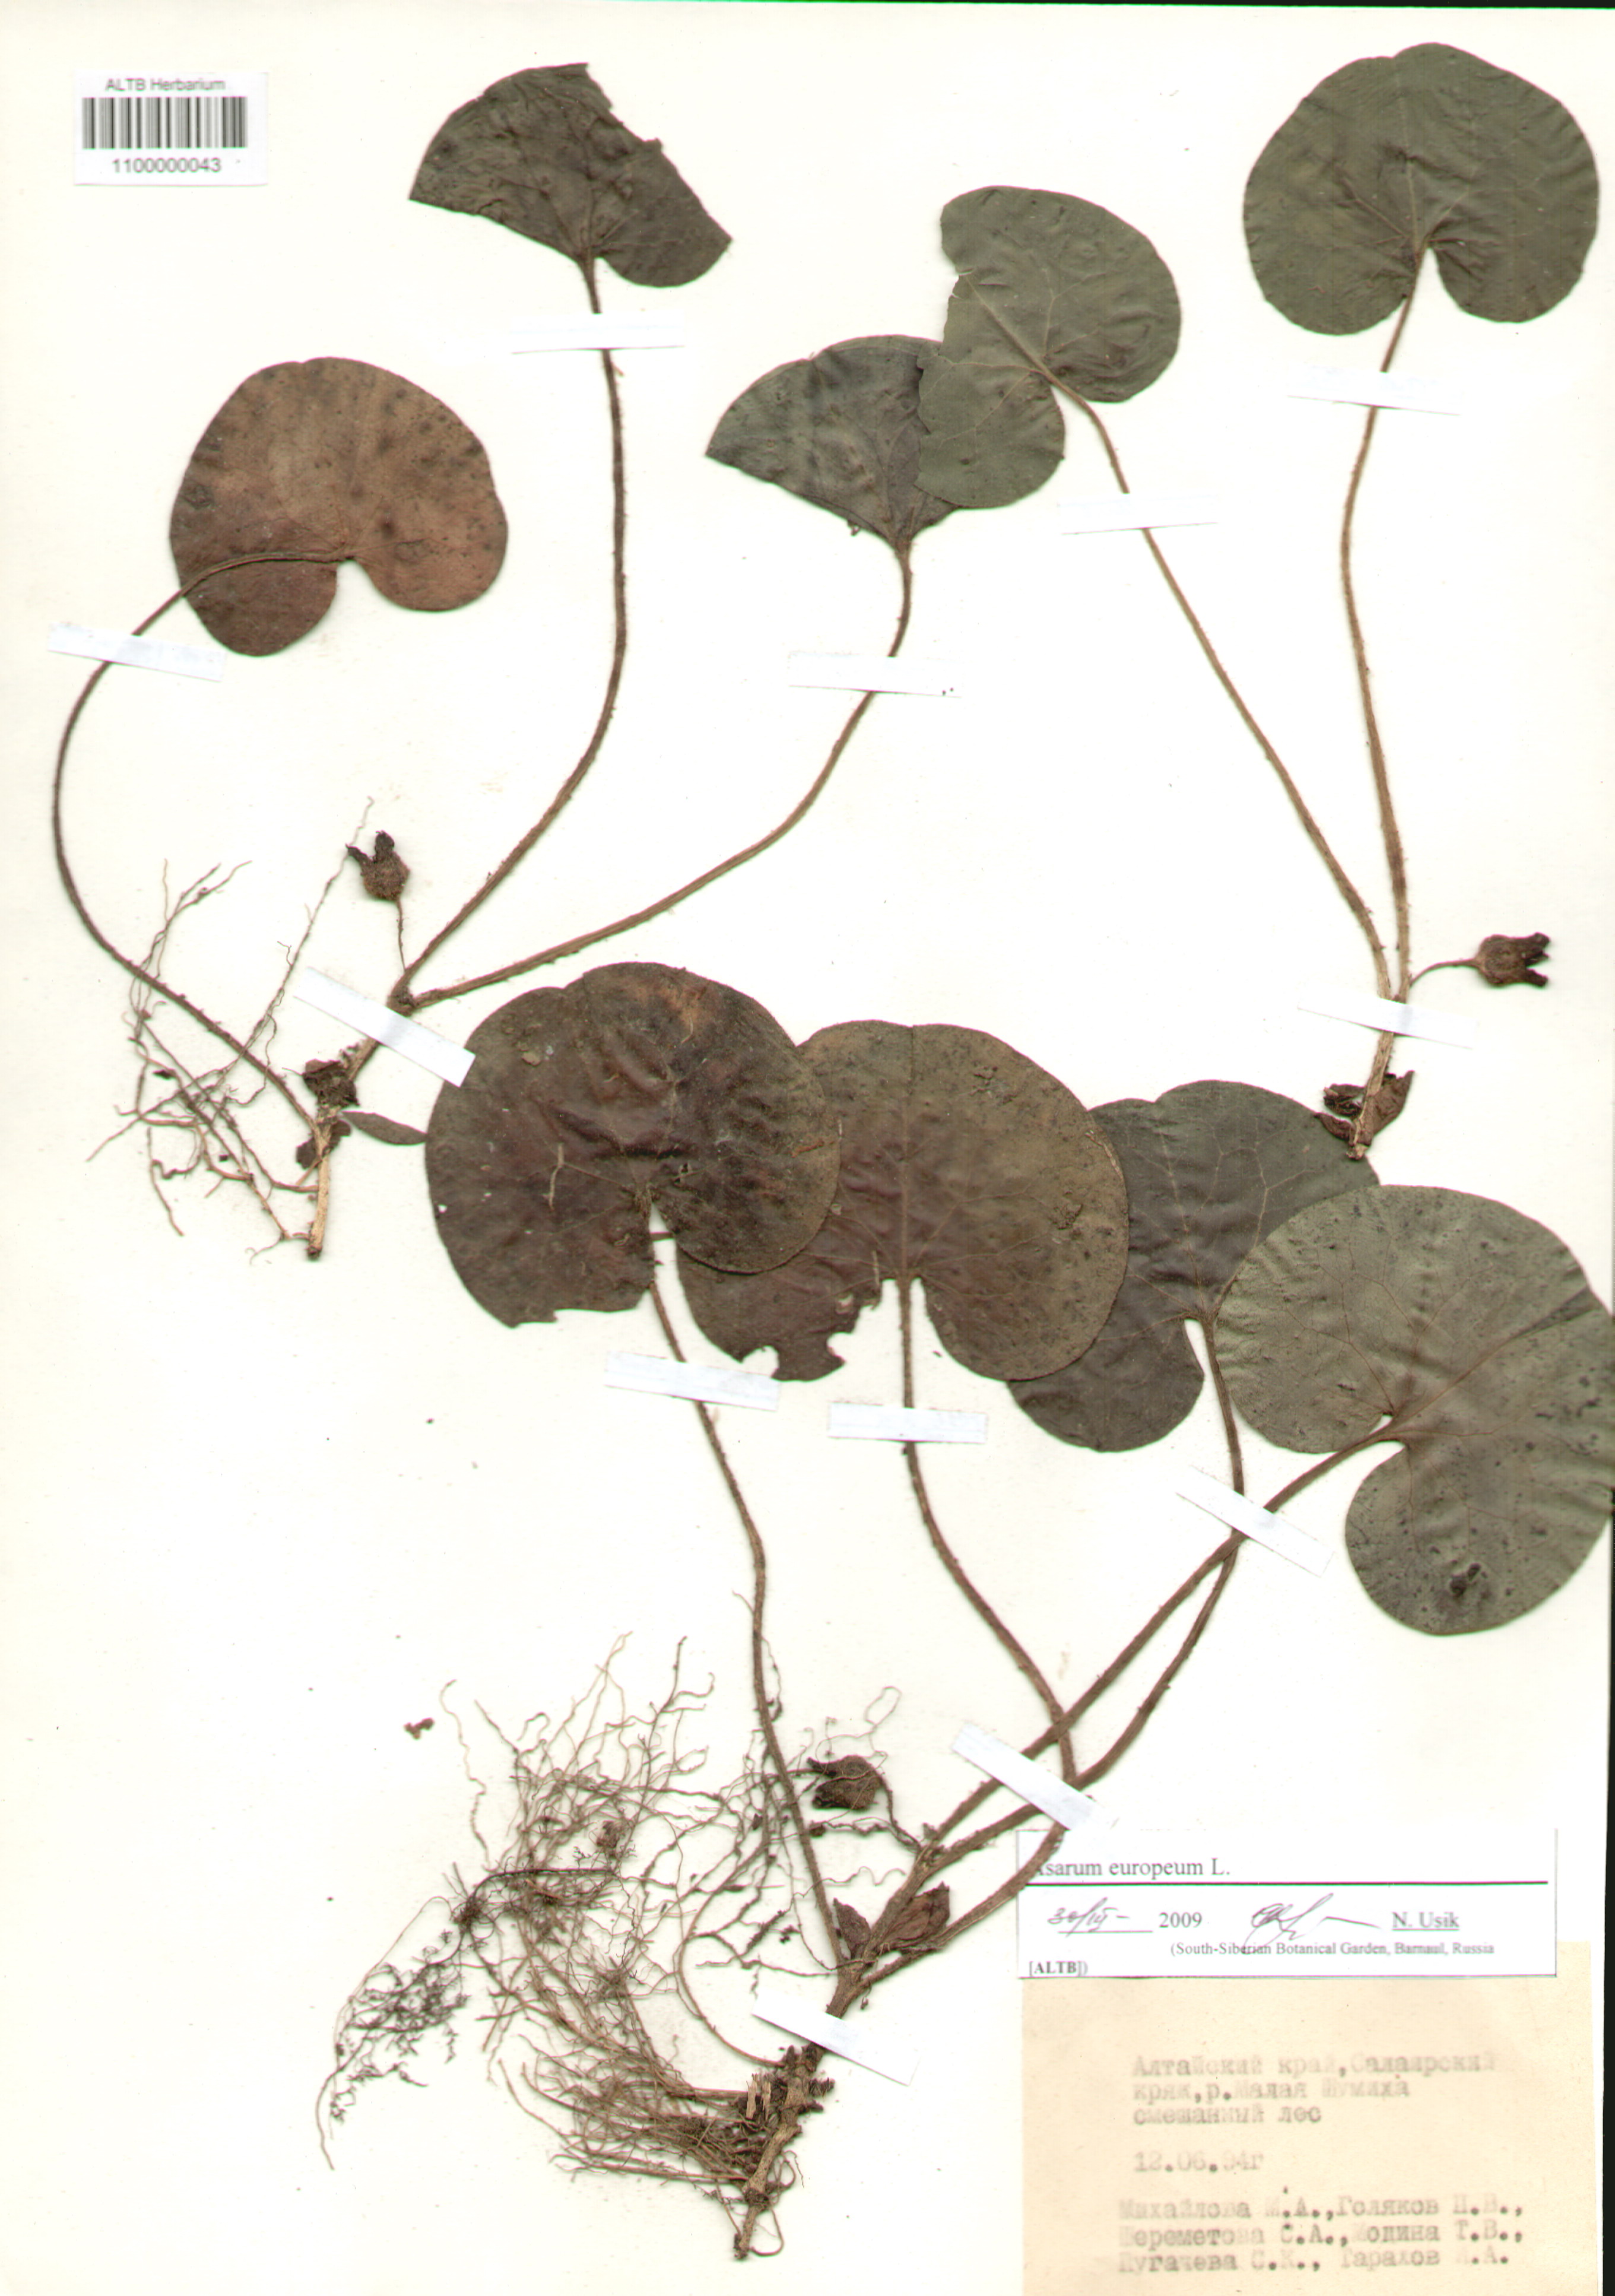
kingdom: Plantae
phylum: Tracheophyta
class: Magnoliopsida
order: Piperales
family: Aristolochiaceae
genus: Asarum
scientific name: Asarum europaeum
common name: Asarabacca
